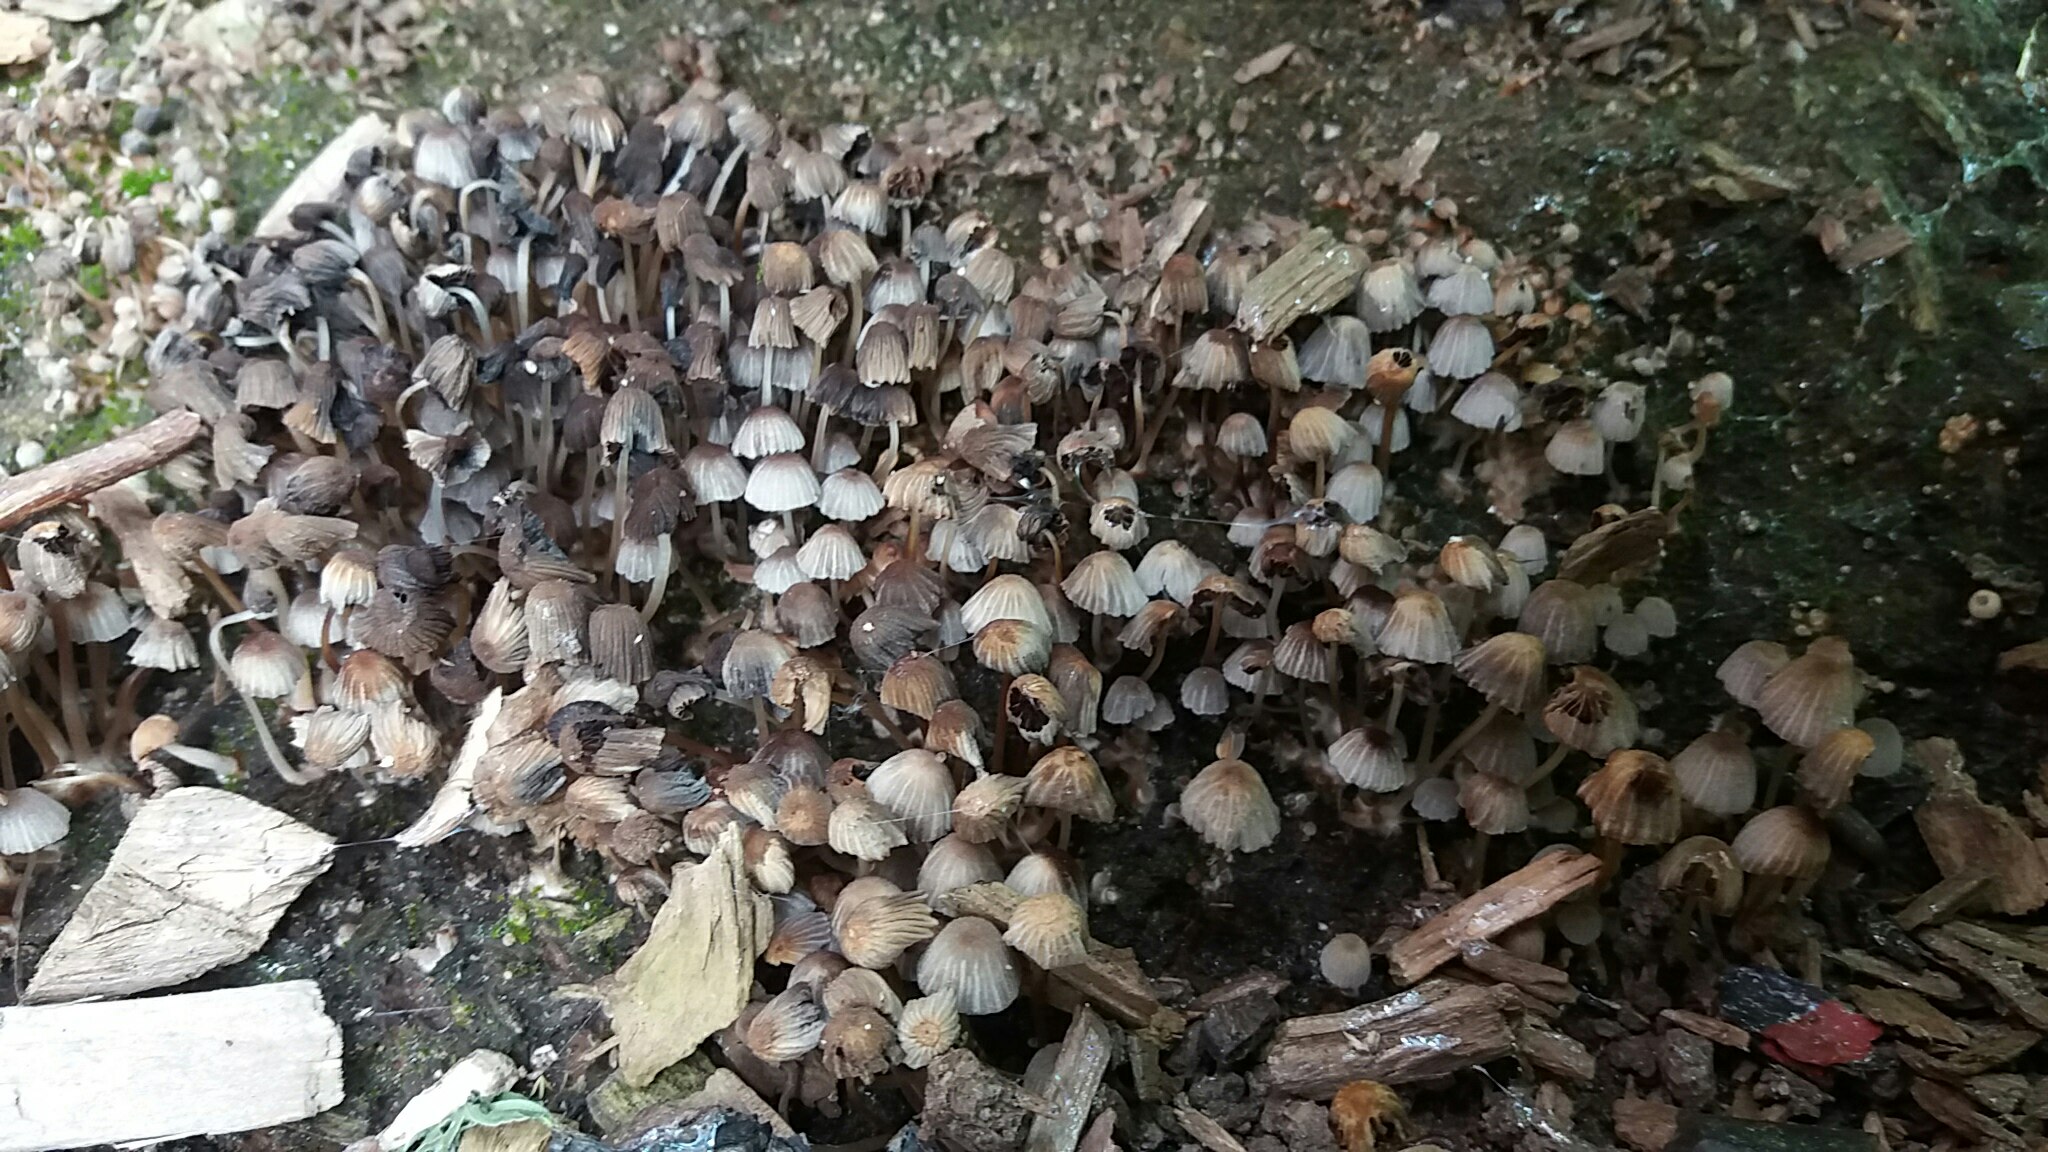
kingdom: Fungi
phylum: Basidiomycota
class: Agaricomycetes
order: Agaricales
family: Psathyrellaceae
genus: Coprinellus
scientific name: Coprinellus disseminatus
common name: bredsået blækhat
